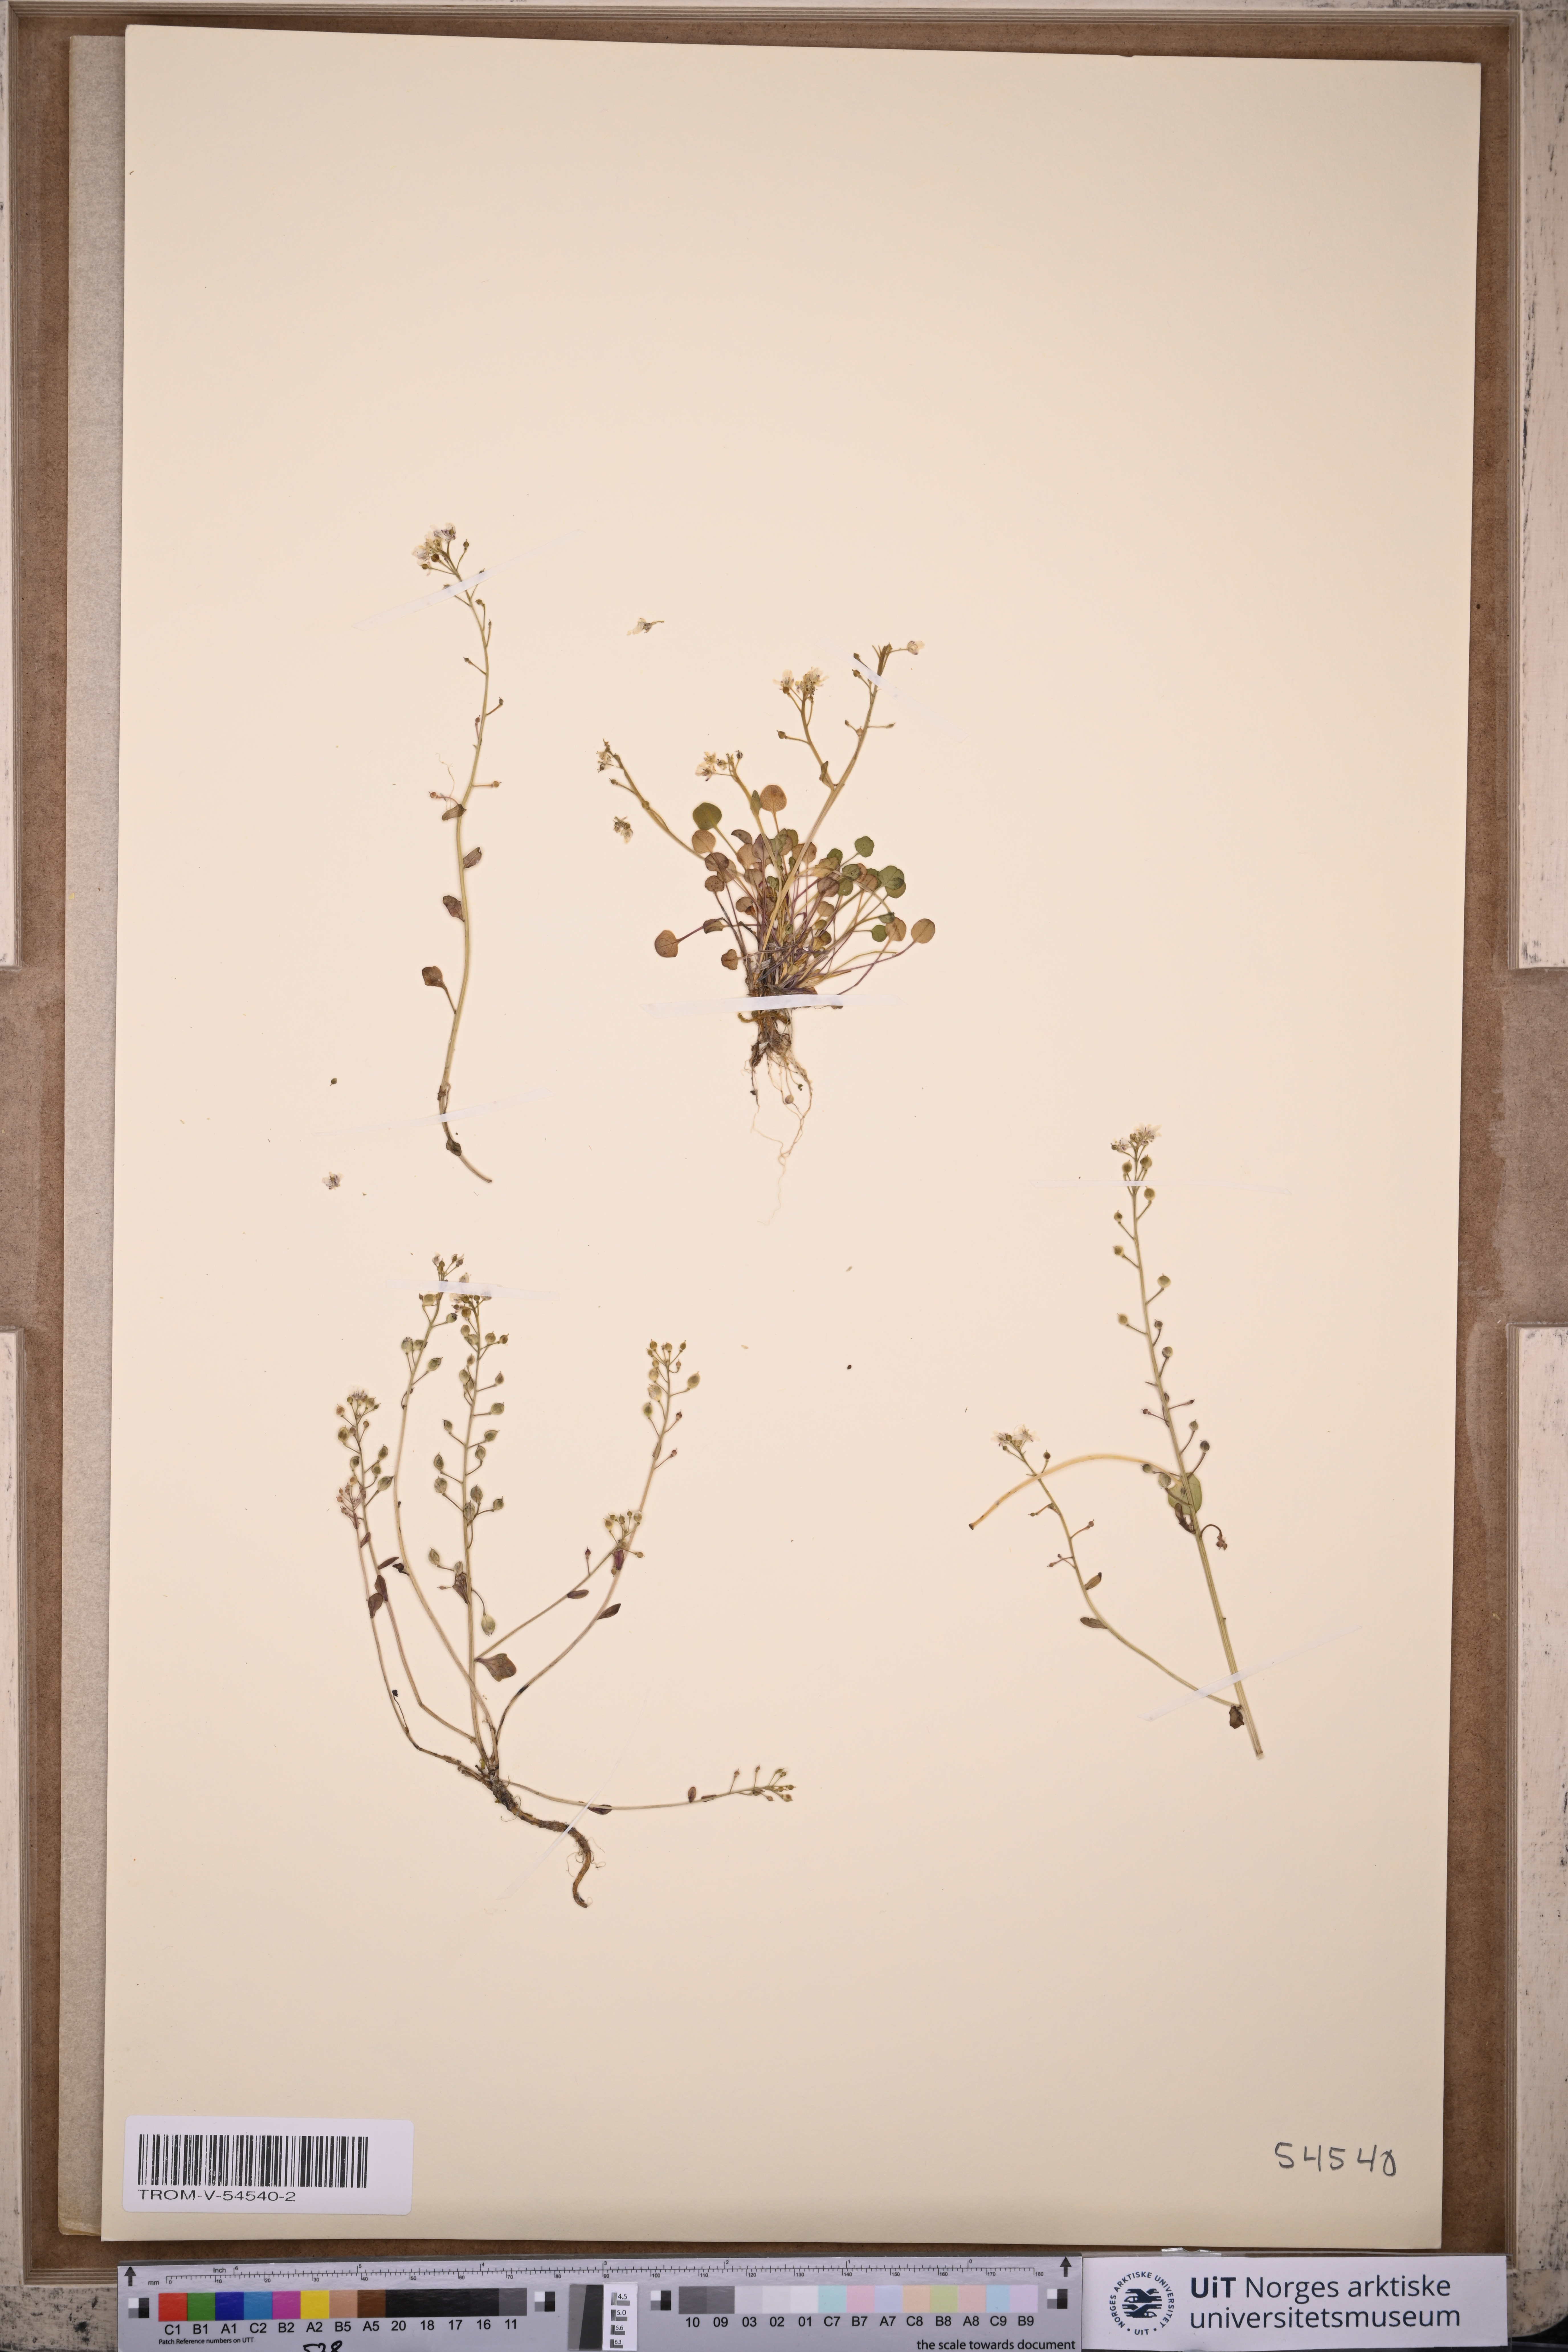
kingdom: Plantae
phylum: Tracheophyta
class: Magnoliopsida
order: Brassicales
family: Brassicaceae
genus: Cochlearia
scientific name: Cochlearia officinalis
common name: Scurvy-grass
